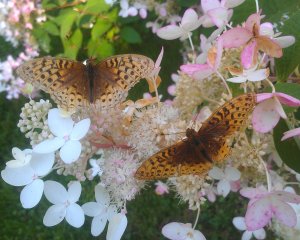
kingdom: Animalia
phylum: Arthropoda
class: Insecta
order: Lepidoptera
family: Nymphalidae
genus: Speyeria
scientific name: Speyeria cybele
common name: Great Spangled Fritillary
